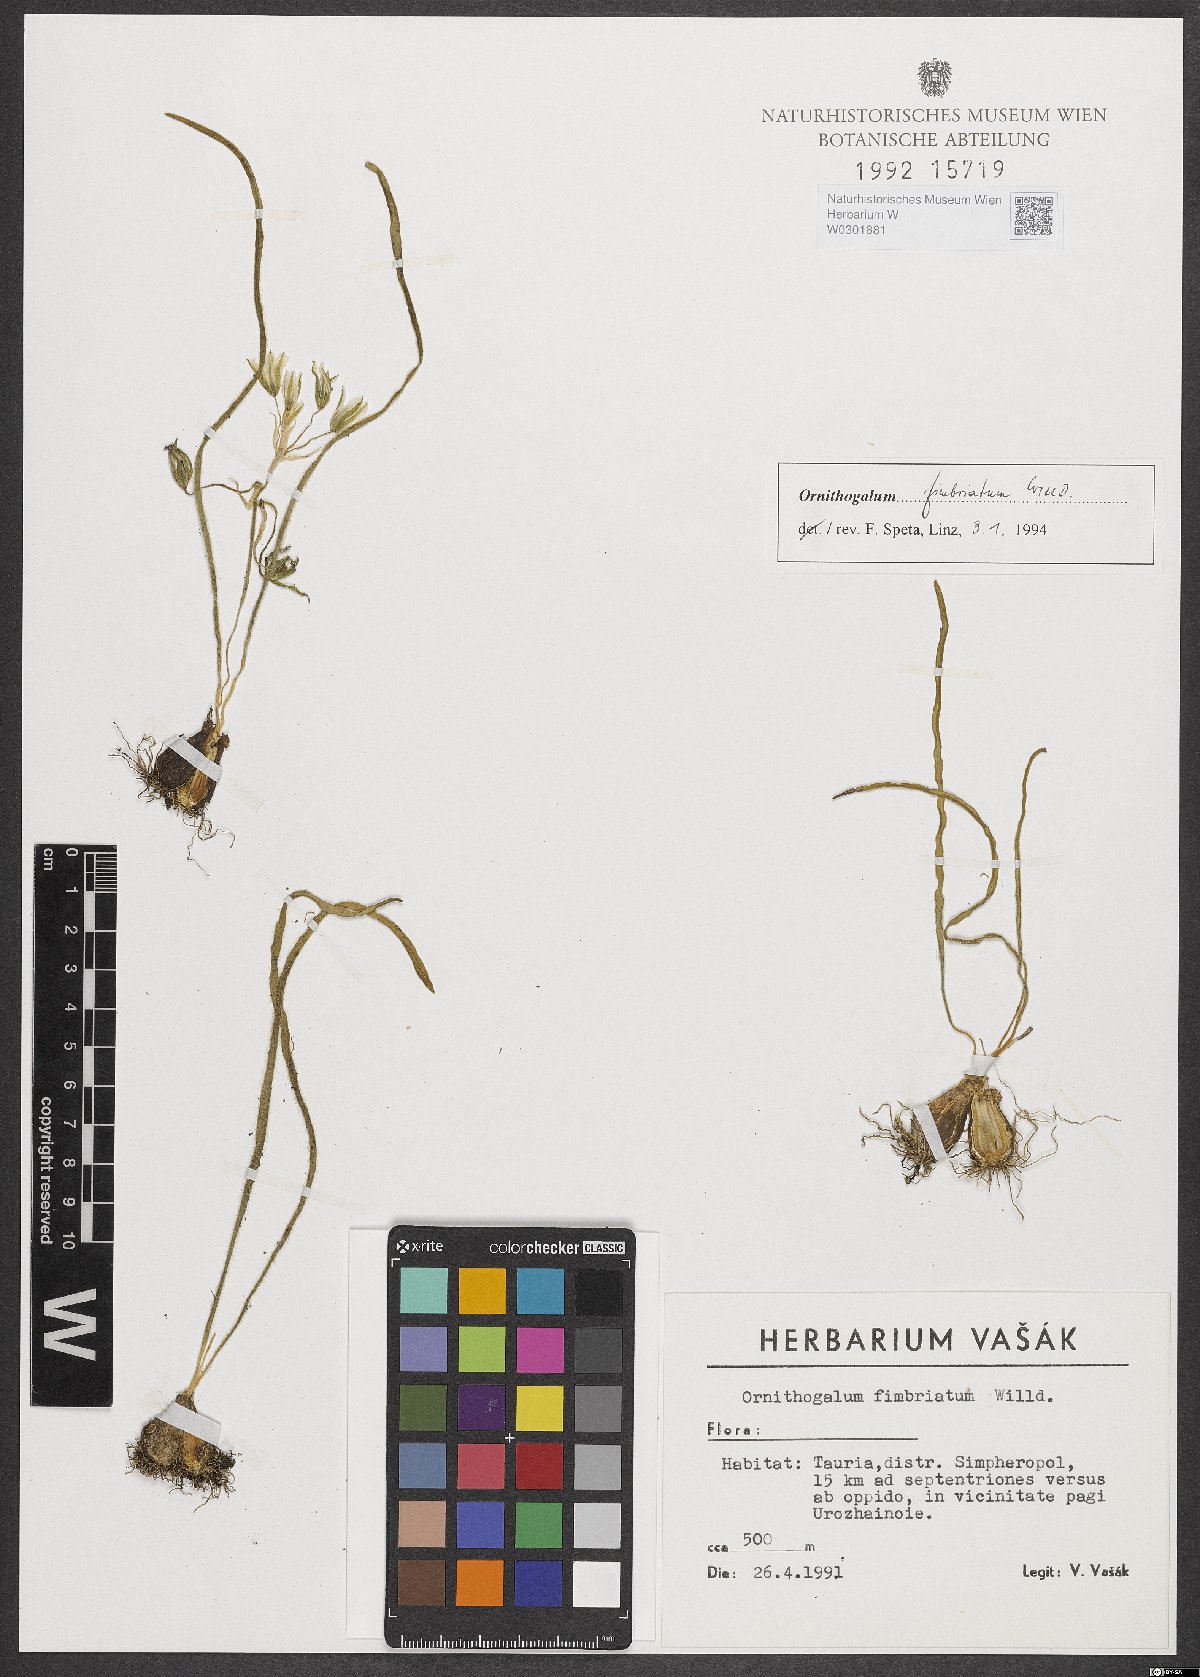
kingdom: Plantae
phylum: Tracheophyta
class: Liliopsida
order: Asparagales
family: Asparagaceae
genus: Ornithogalum
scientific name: Ornithogalum fimbriatum
